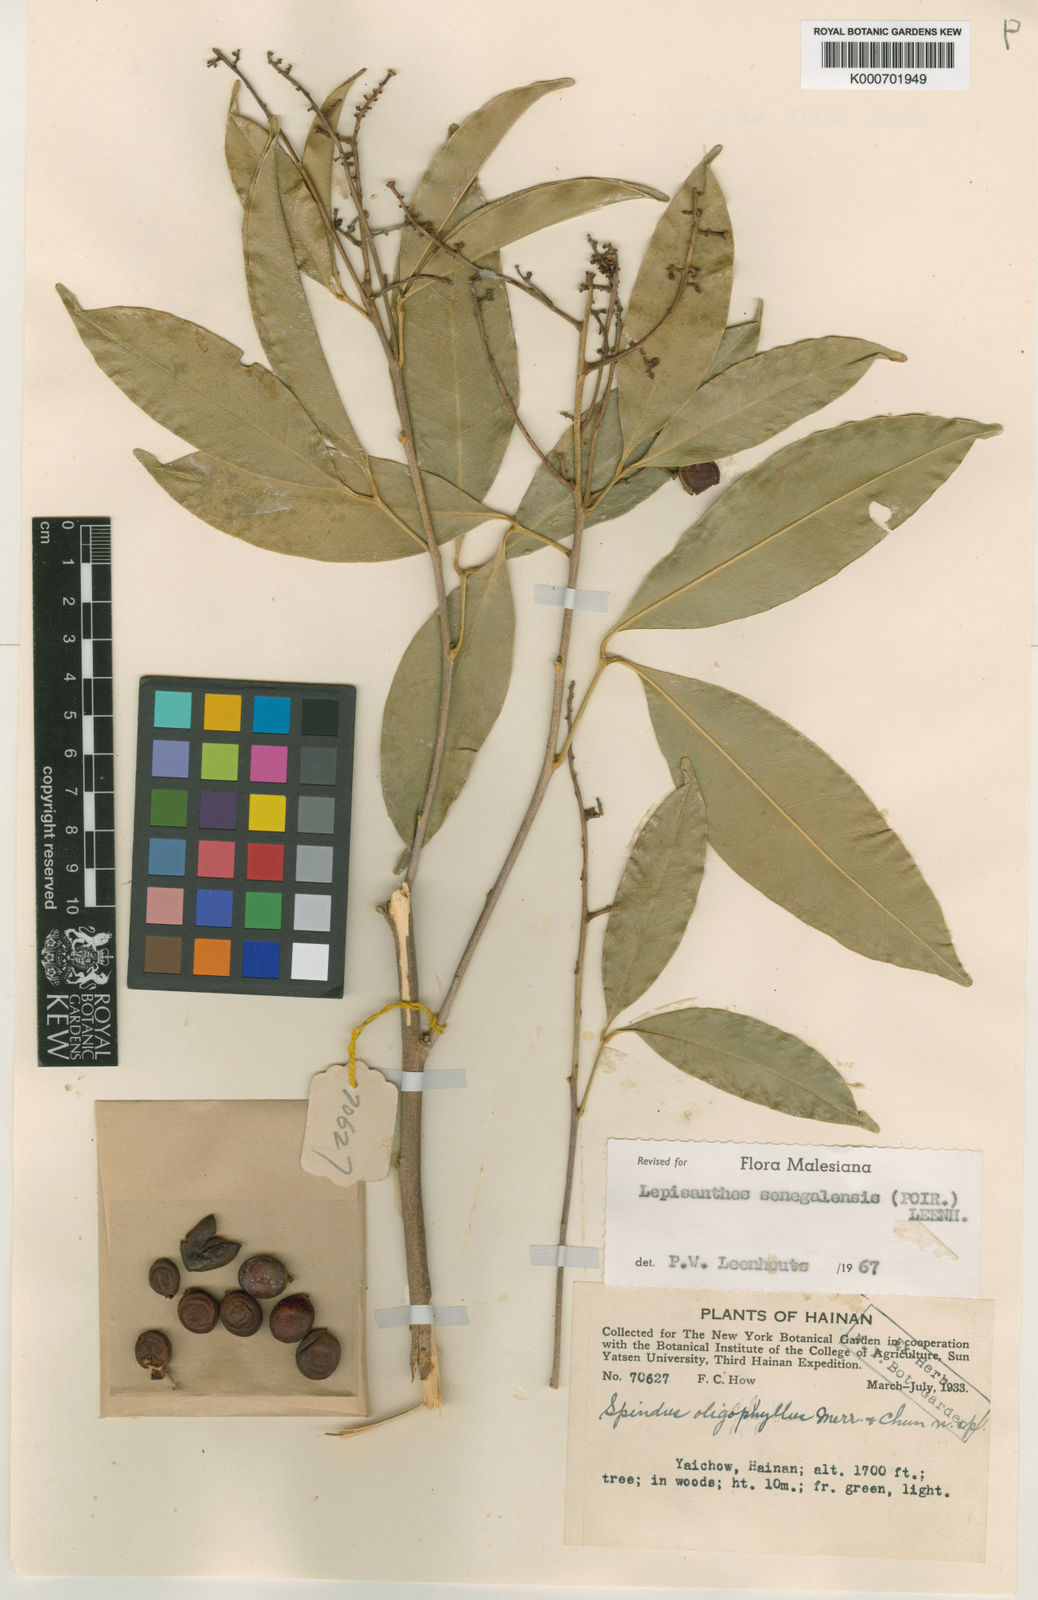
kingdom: Plantae
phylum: Tracheophyta
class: Magnoliopsida
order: Sapindales
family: Sapindaceae
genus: Lepisanthes
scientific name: Lepisanthes senegalensis
